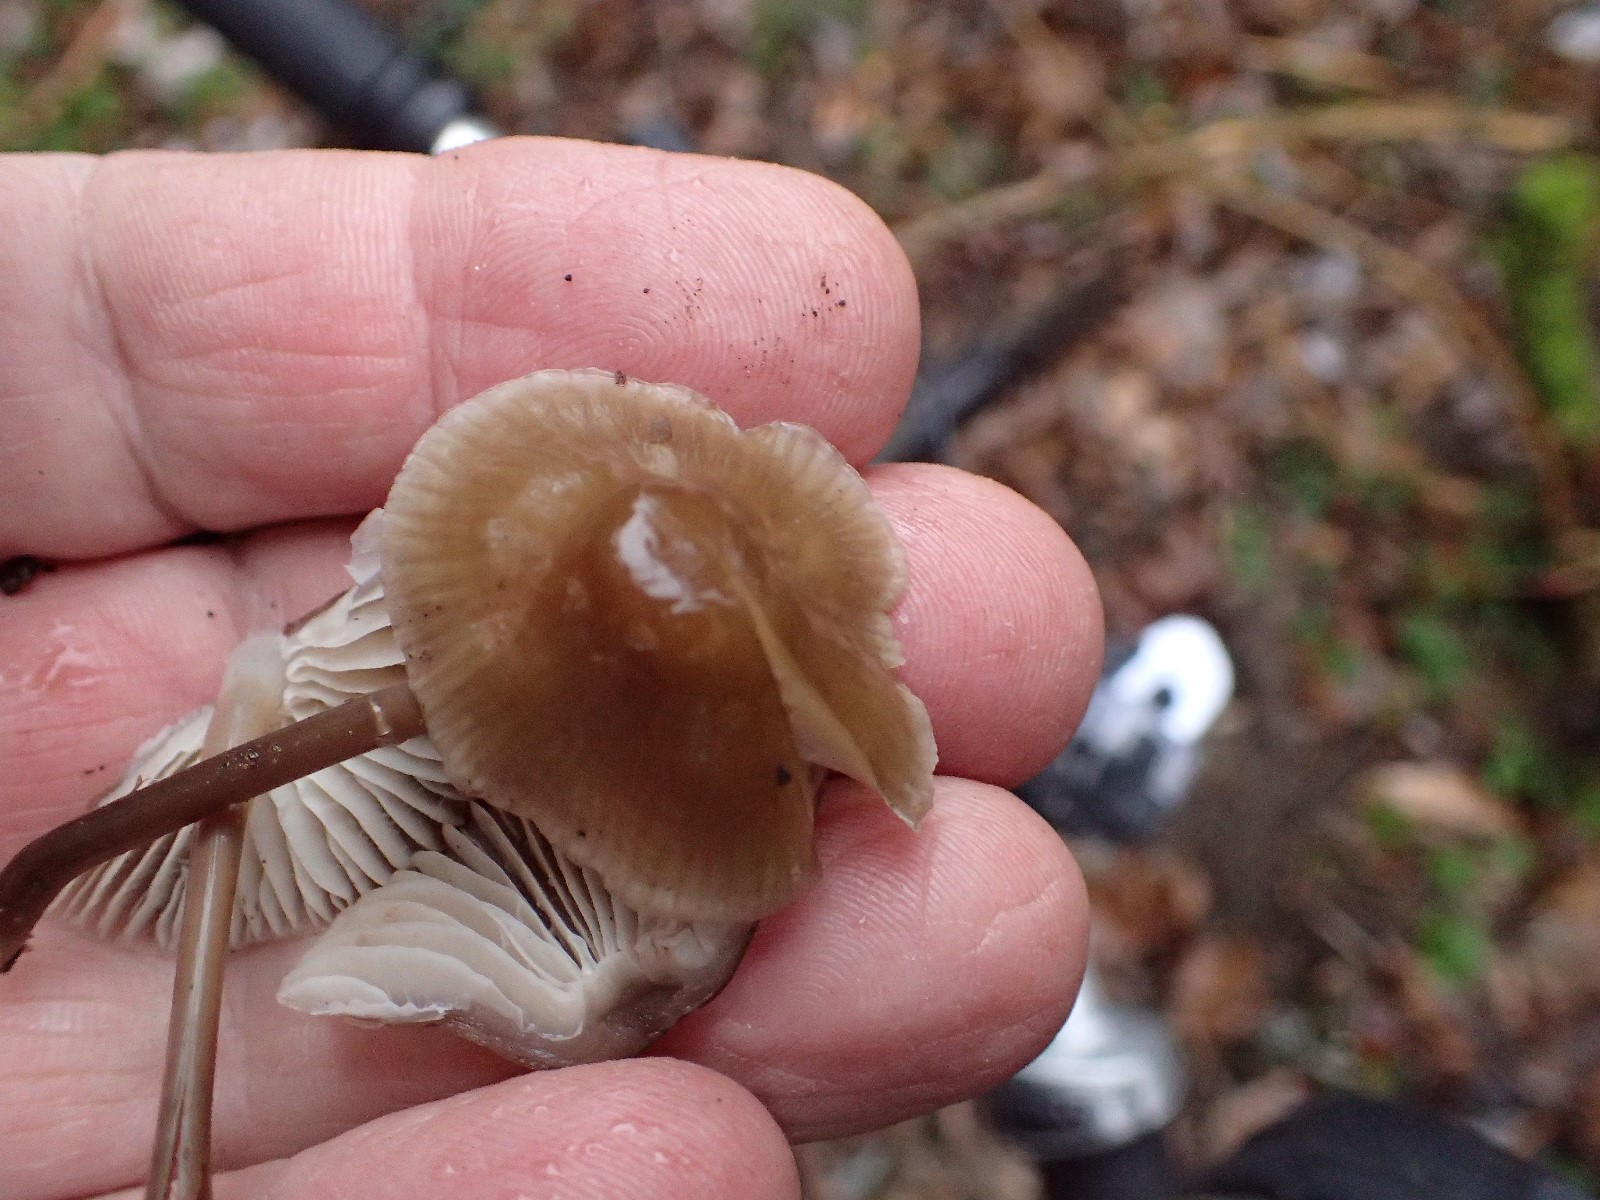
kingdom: Fungi
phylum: Basidiomycota
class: Agaricomycetes
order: Agaricales
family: Mycenaceae
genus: Mycena
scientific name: Mycena galericulata
